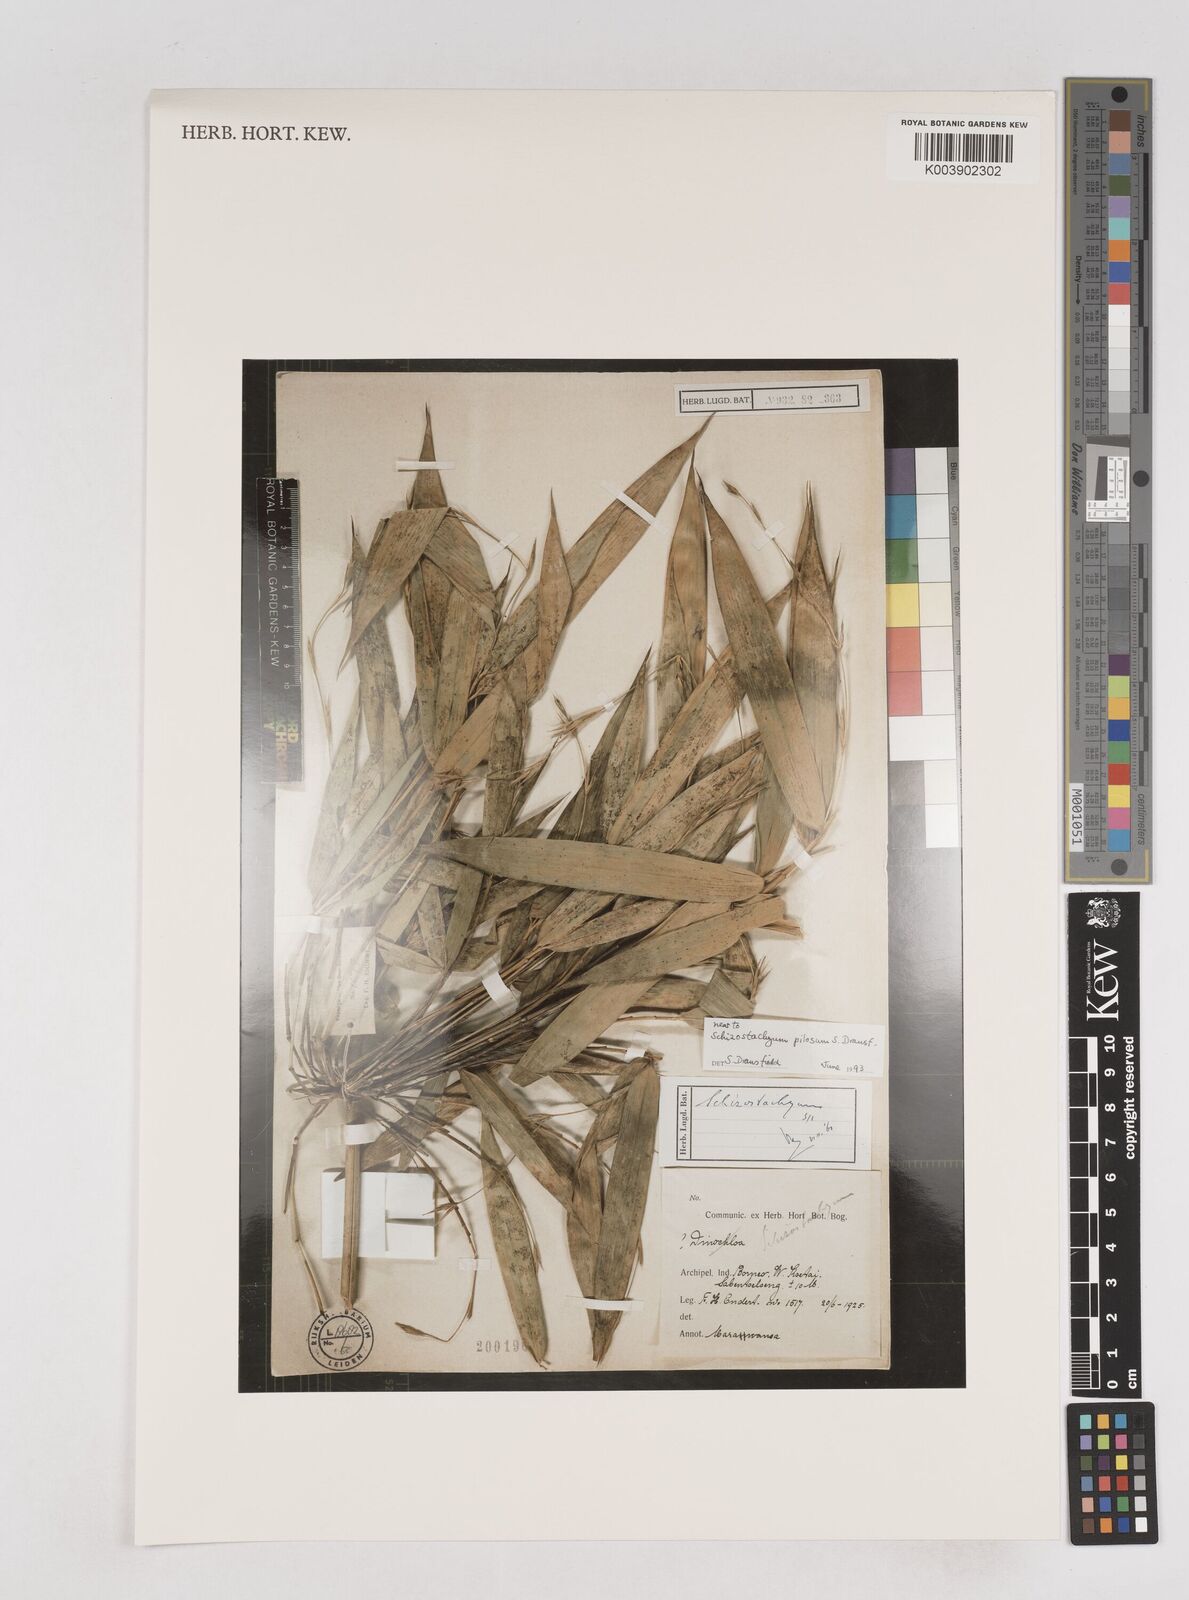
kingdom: Plantae
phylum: Tracheophyta
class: Liliopsida
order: Poales
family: Poaceae
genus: Schizostachyum
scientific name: Schizostachyum pilosum
